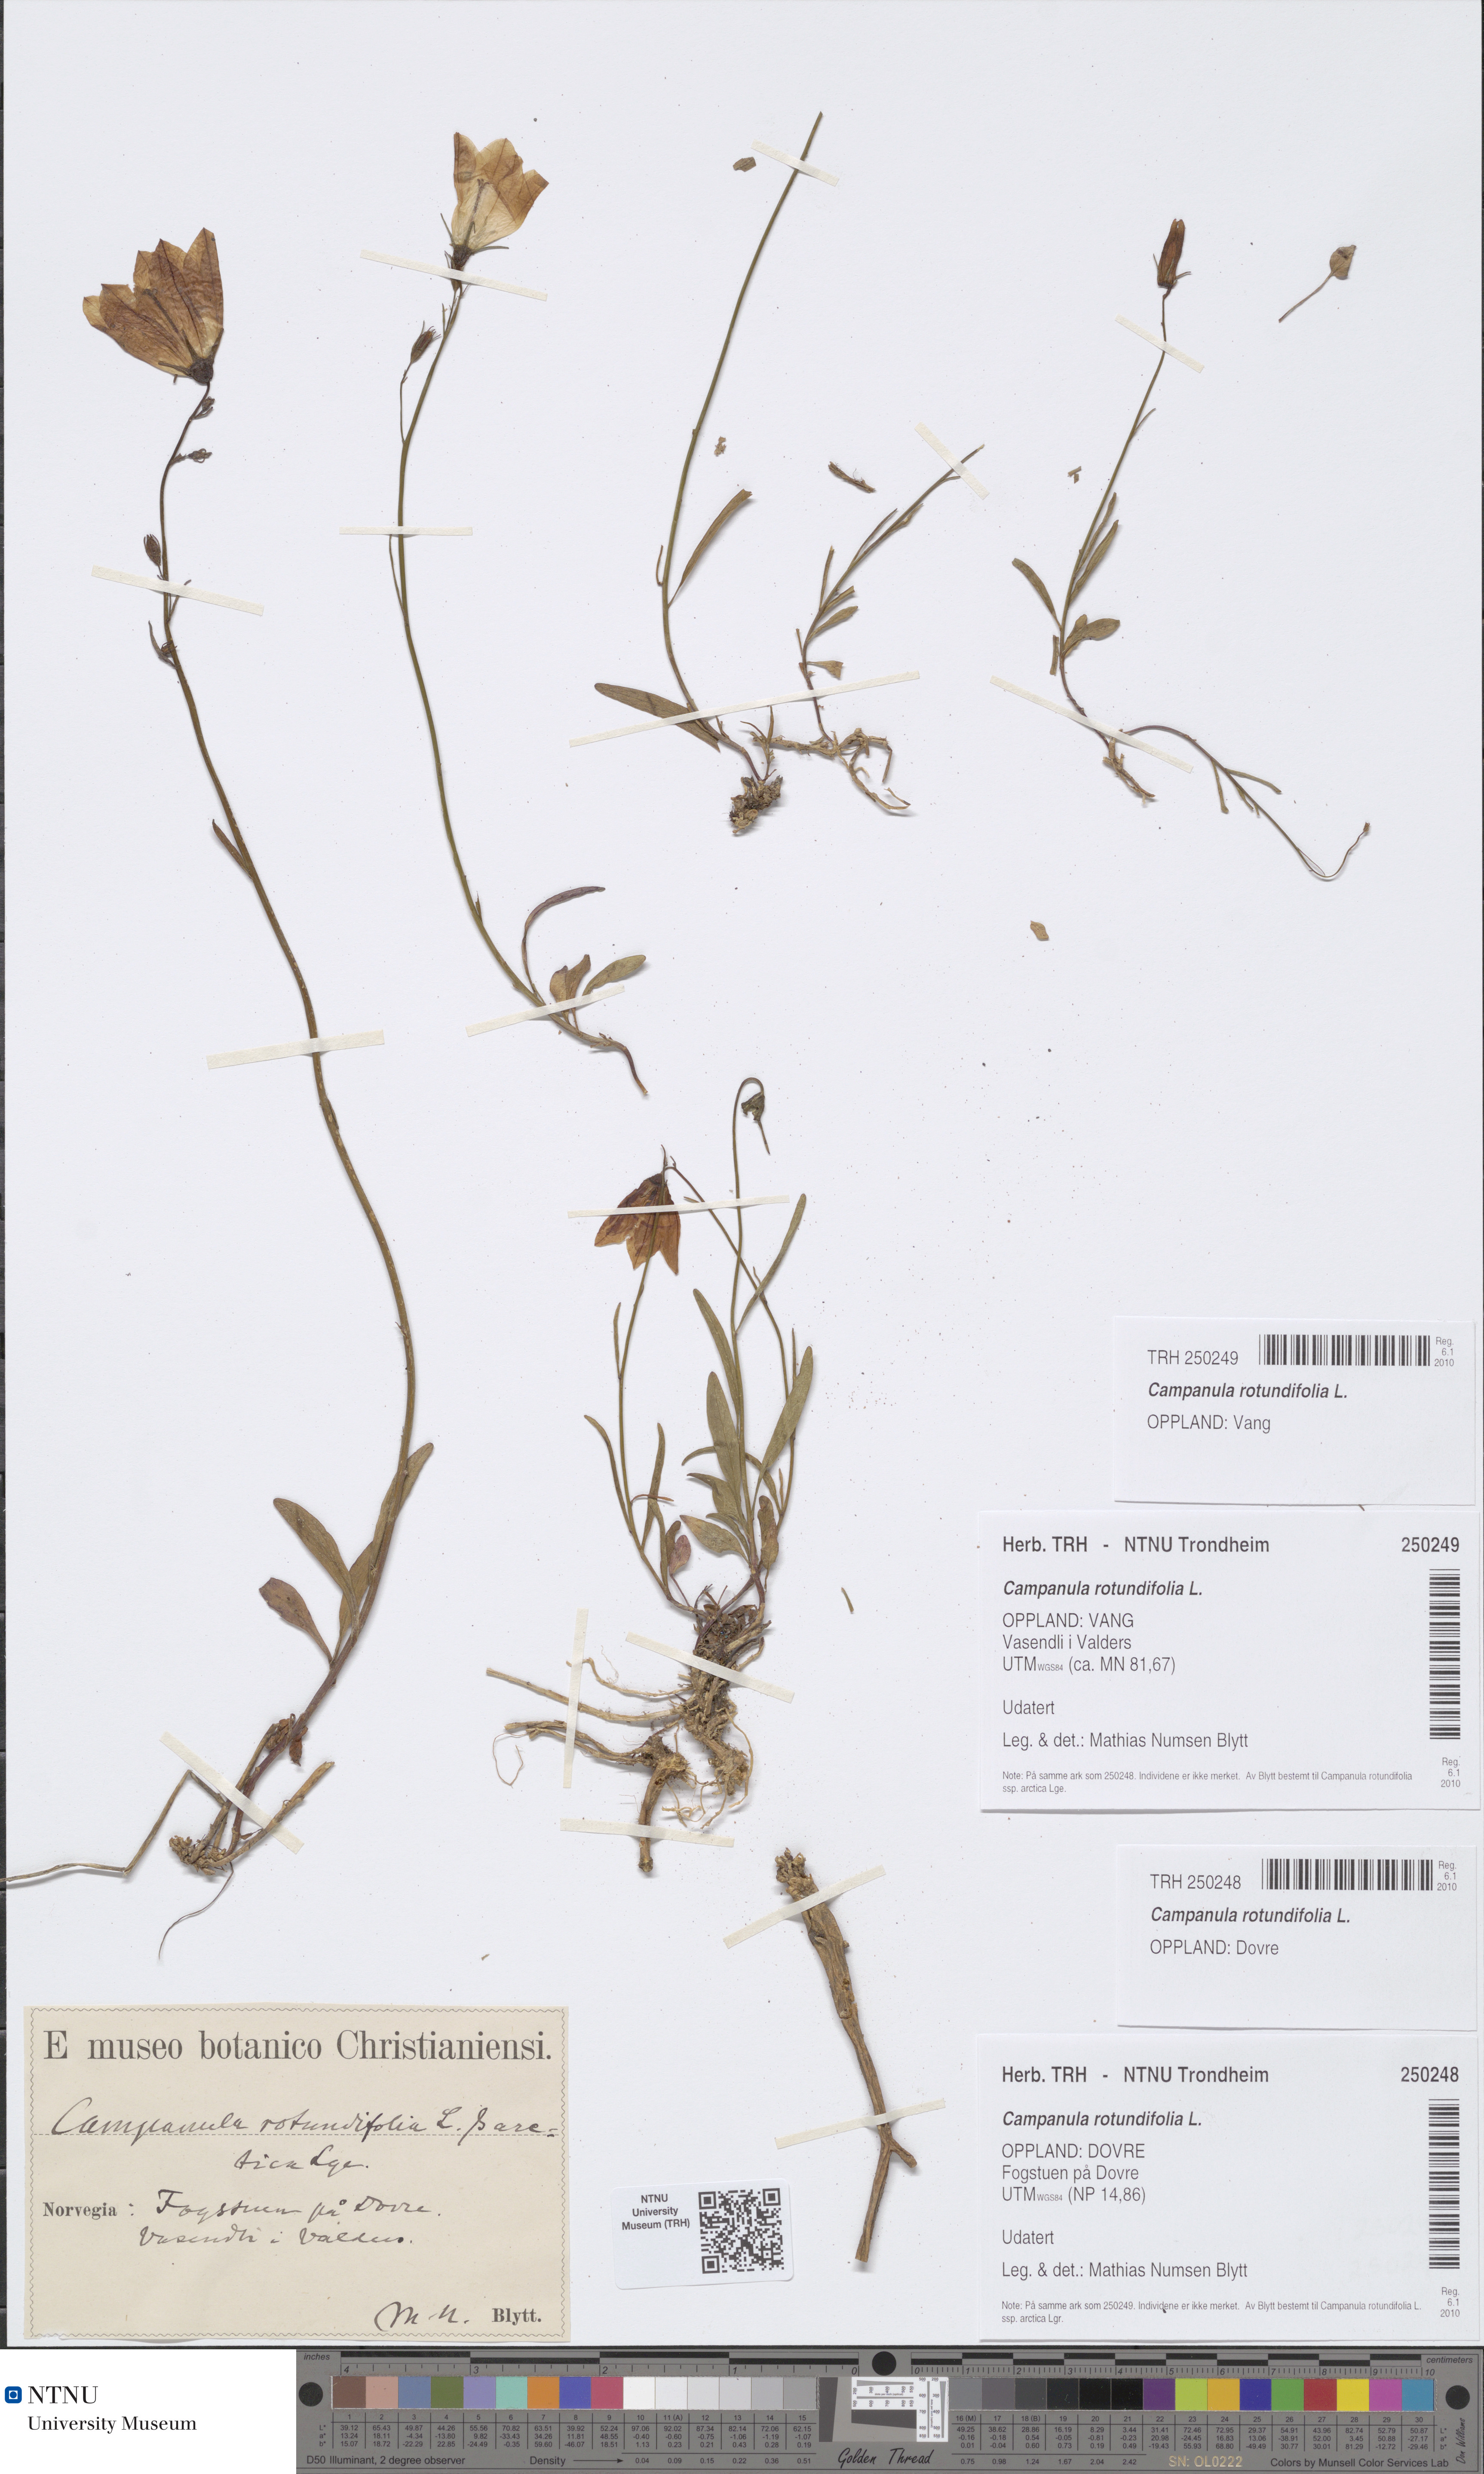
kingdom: Plantae
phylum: Tracheophyta
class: Magnoliopsida
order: Asterales
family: Campanulaceae
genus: Campanula
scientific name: Campanula rotundifolia
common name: Harebell
